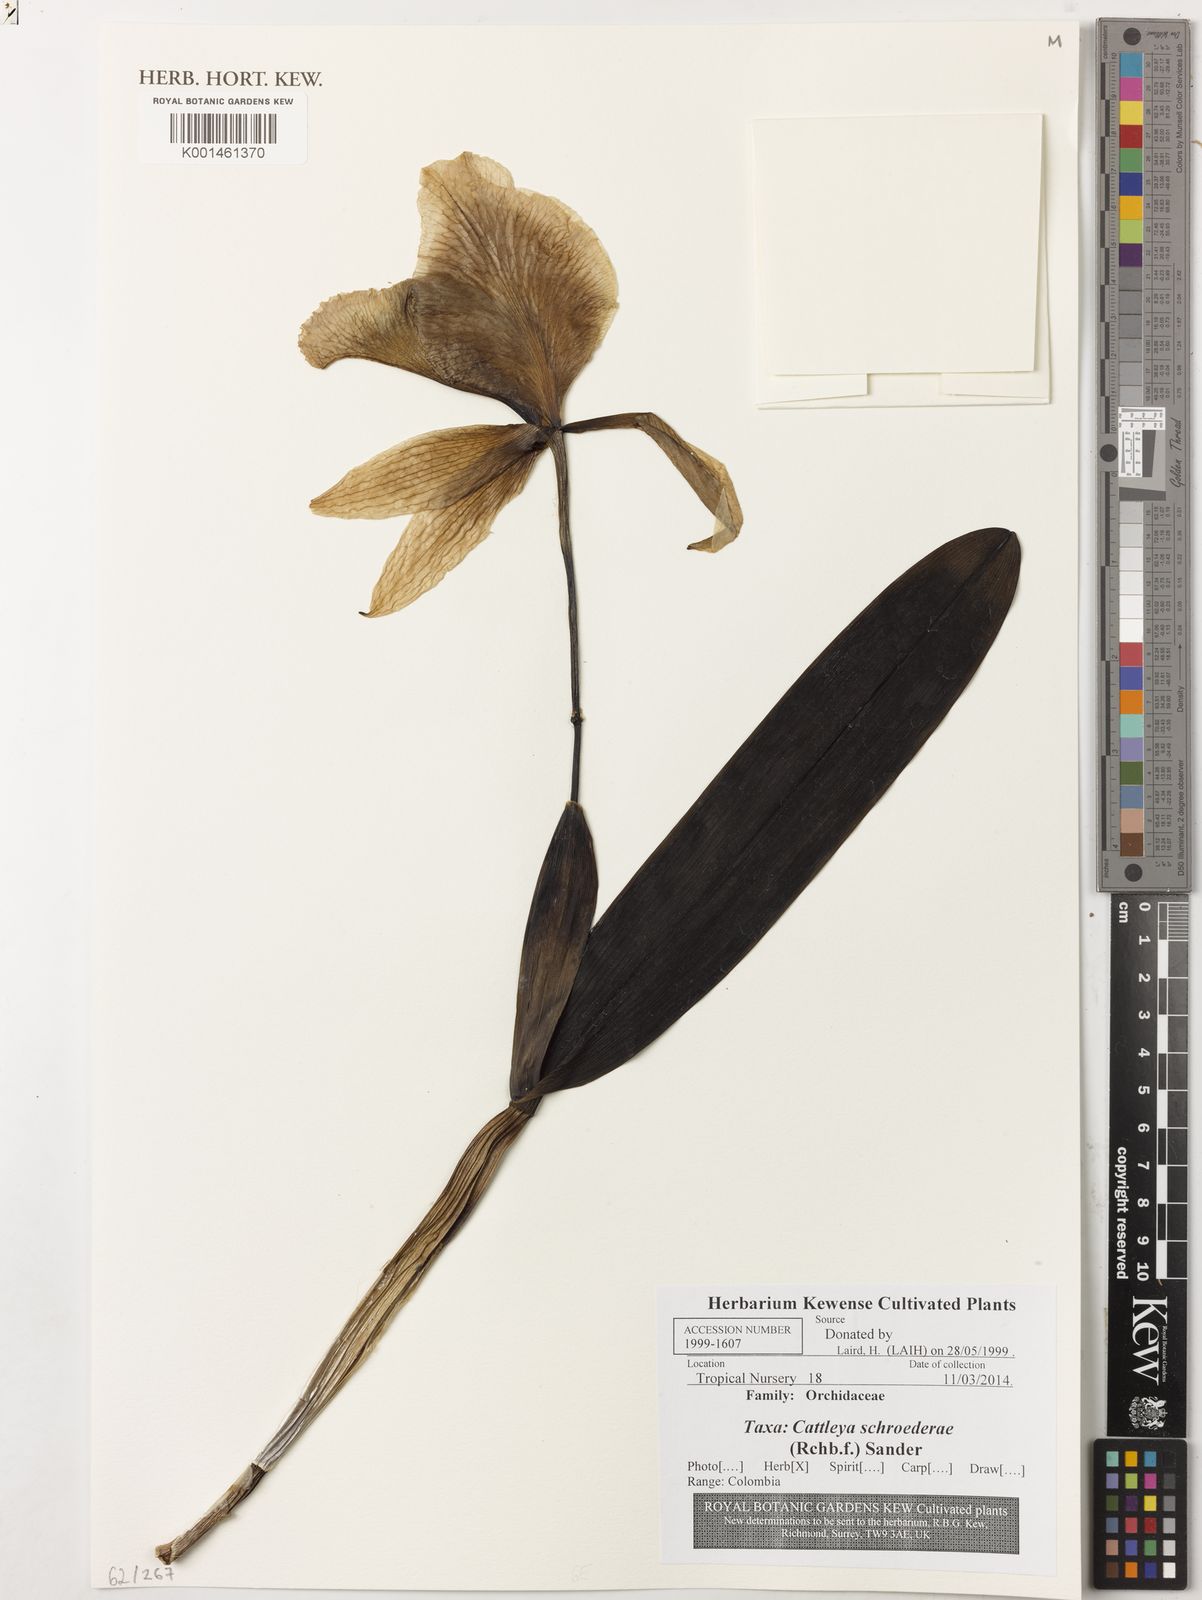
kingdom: Plantae
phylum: Tracheophyta
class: Liliopsida
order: Asparagales
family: Orchidaceae
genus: Cattleya
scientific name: Cattleya schroederae
